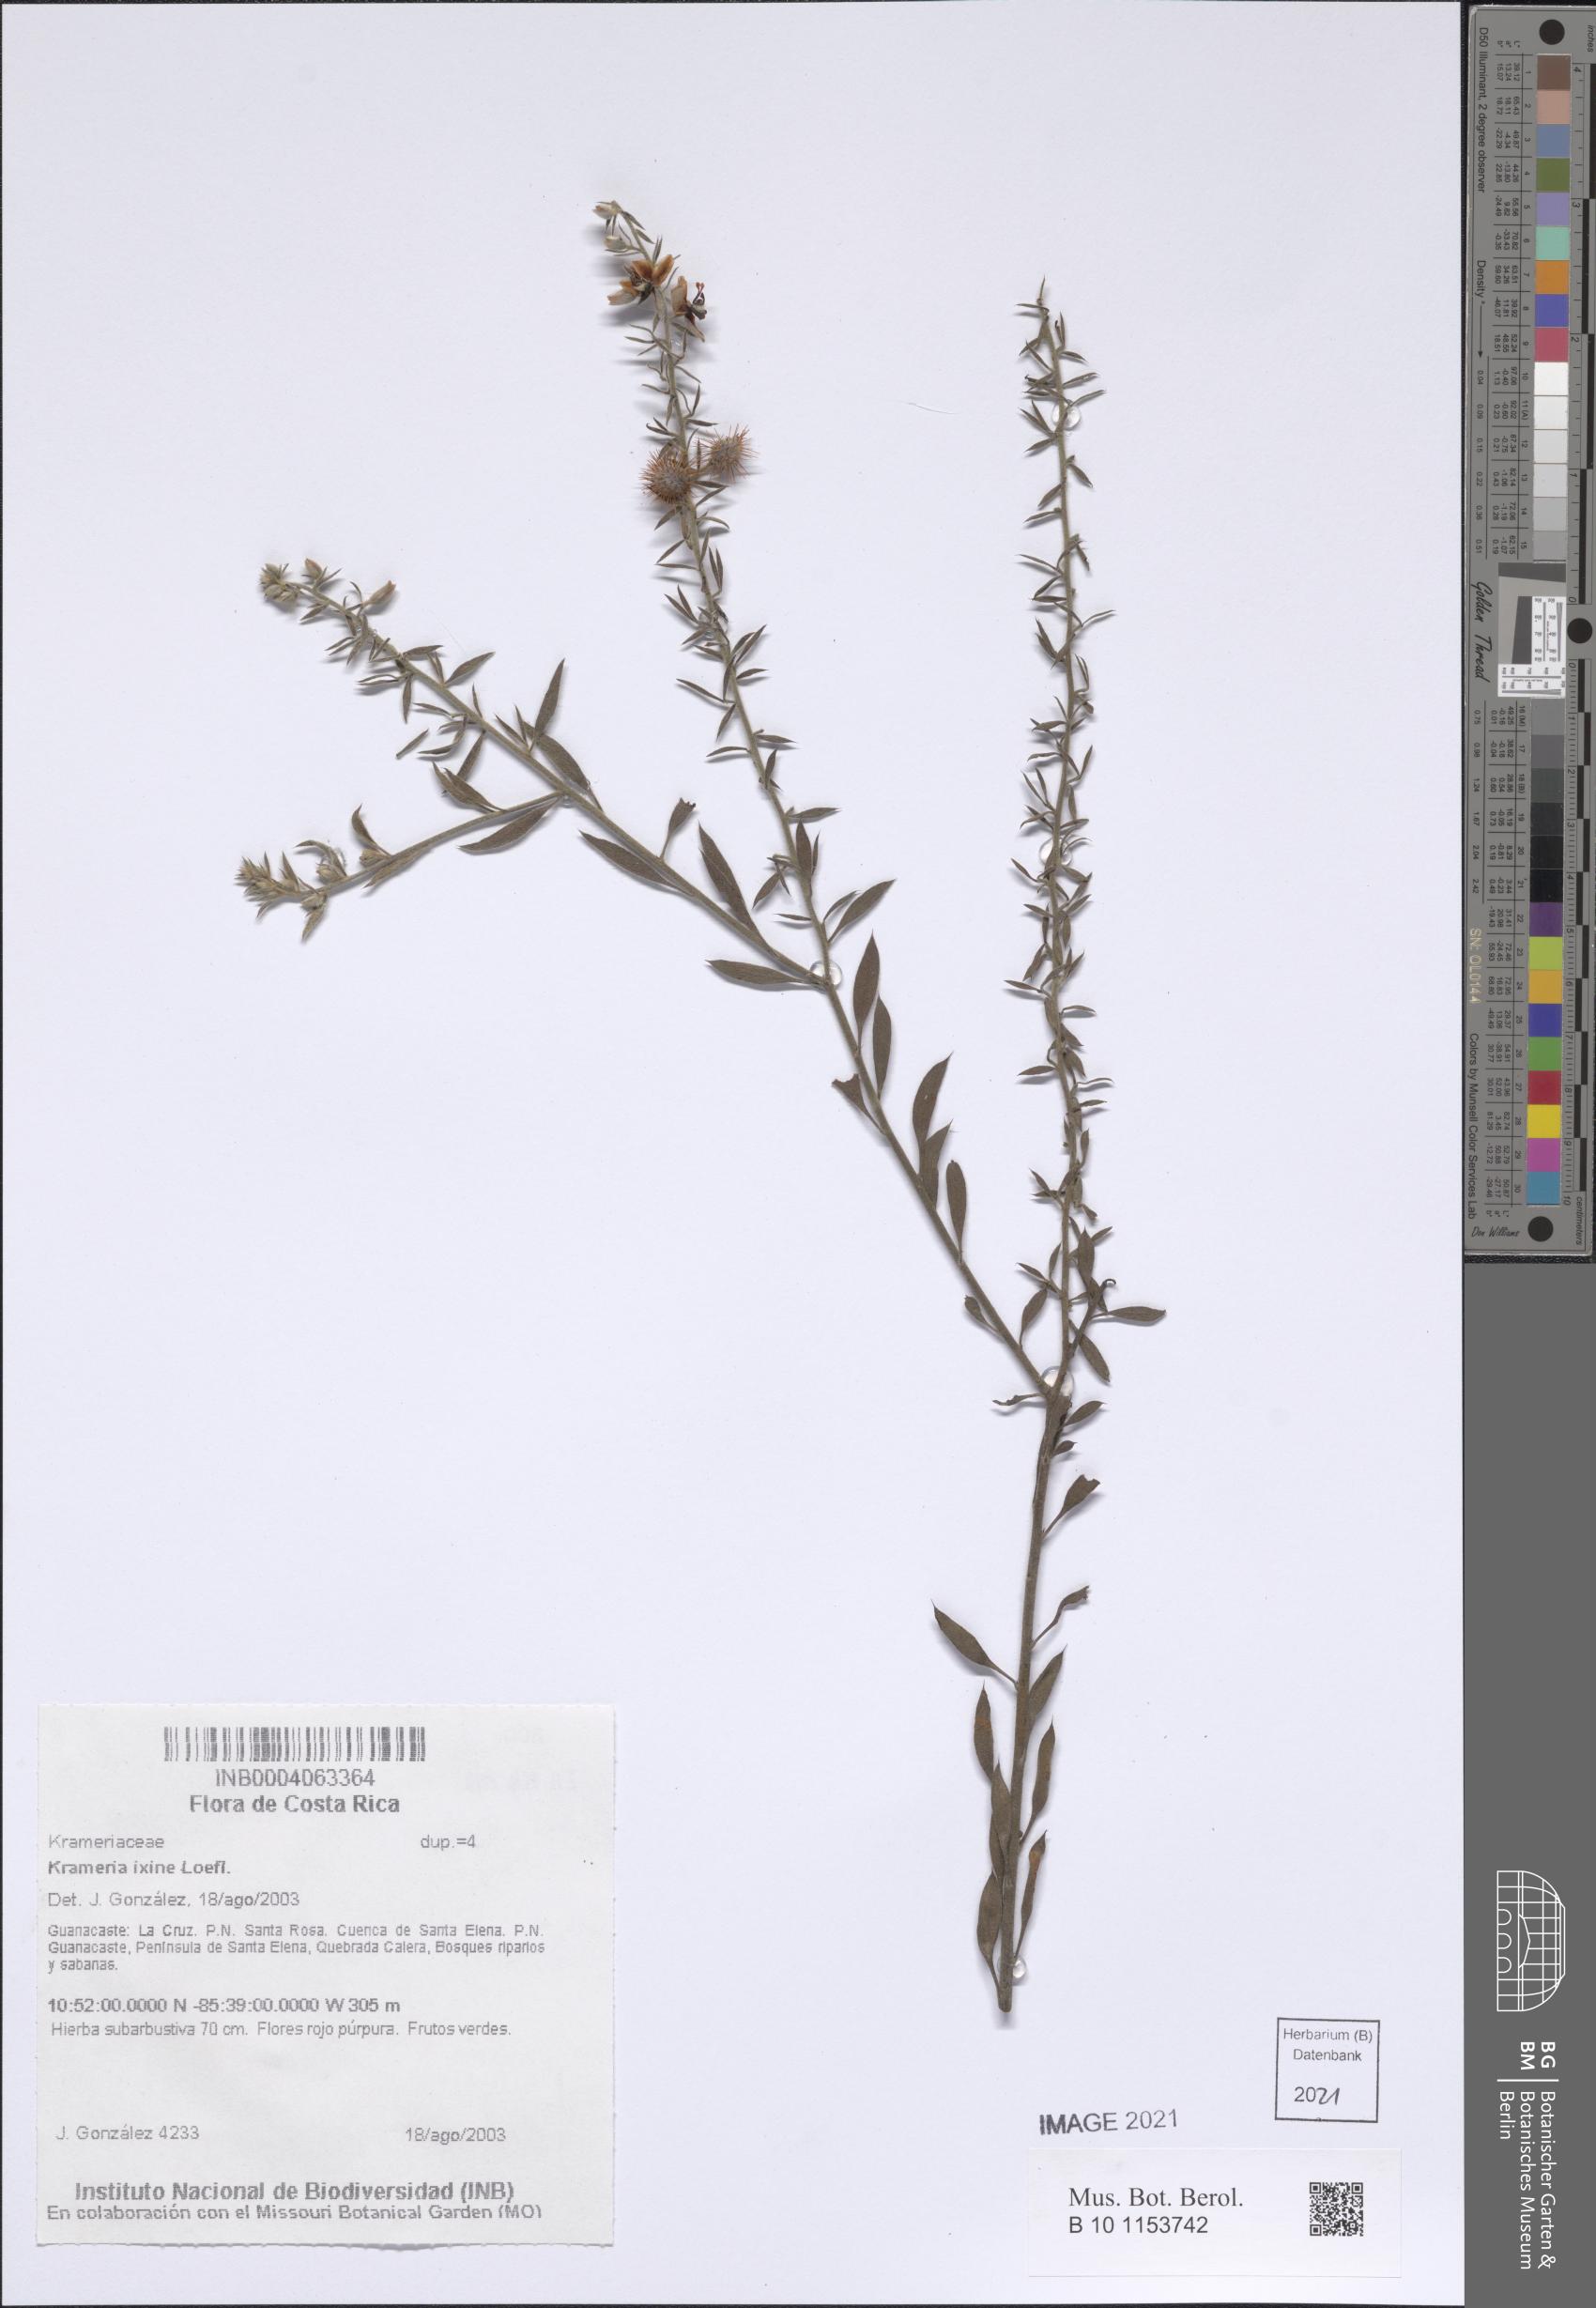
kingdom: Plantae
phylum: Tracheophyta
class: Magnoliopsida
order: Zygophyllales
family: Krameriaceae
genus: Krameria
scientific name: Krameria ixine
